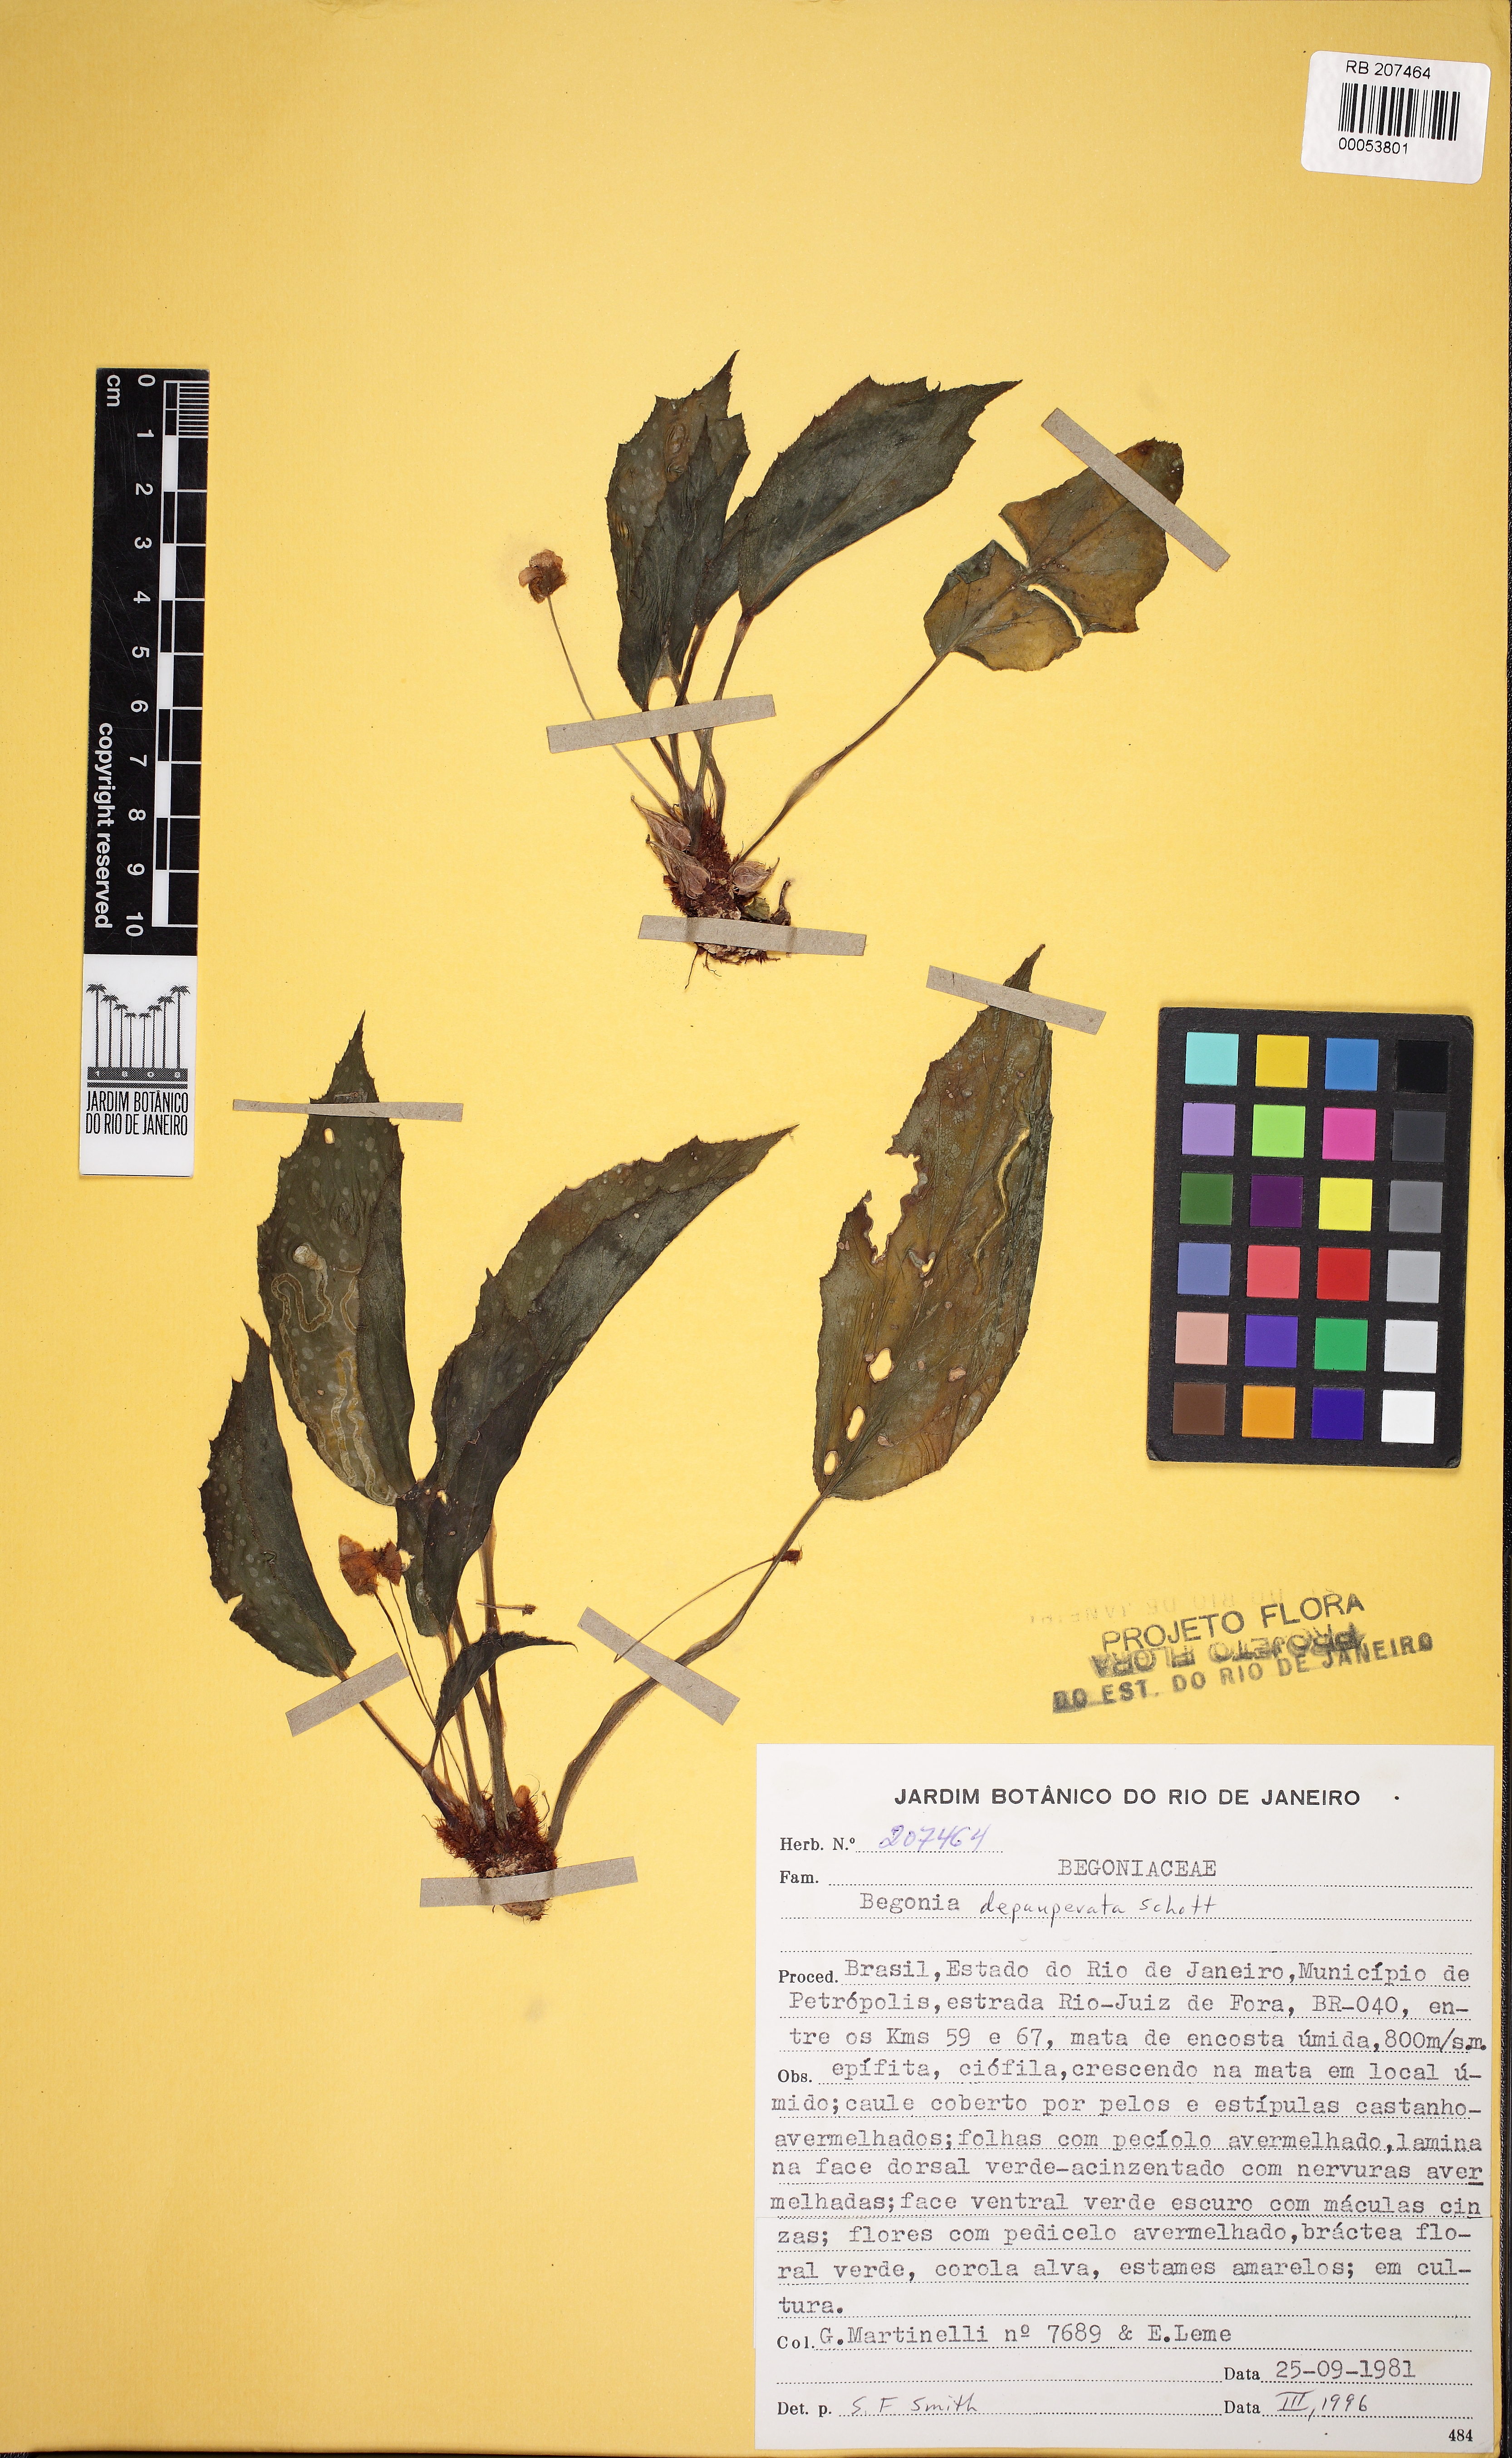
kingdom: Plantae
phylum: Tracheophyta
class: Magnoliopsida
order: Cucurbitales
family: Begoniaceae
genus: Begonia
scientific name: Begonia depauperata
